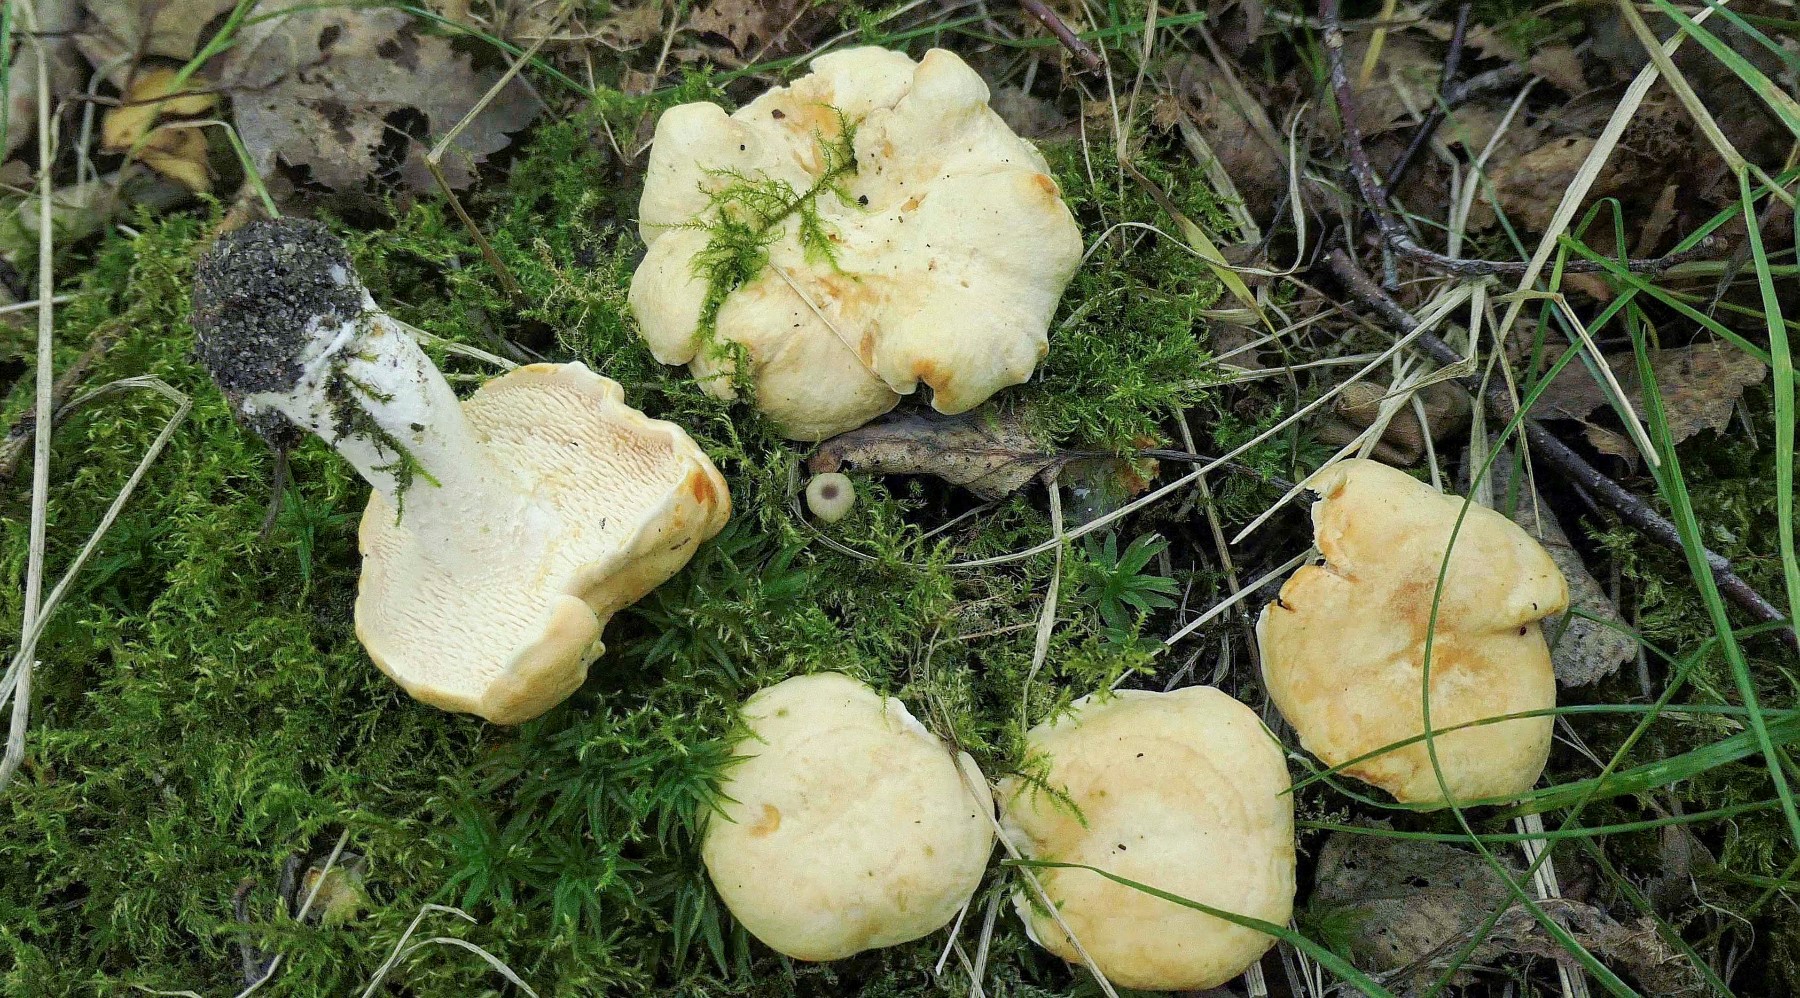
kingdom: Fungi
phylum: Basidiomycota
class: Agaricomycetes
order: Cantharellales
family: Hydnaceae
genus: Hydnum
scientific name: Hydnum
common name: pigsvamp
